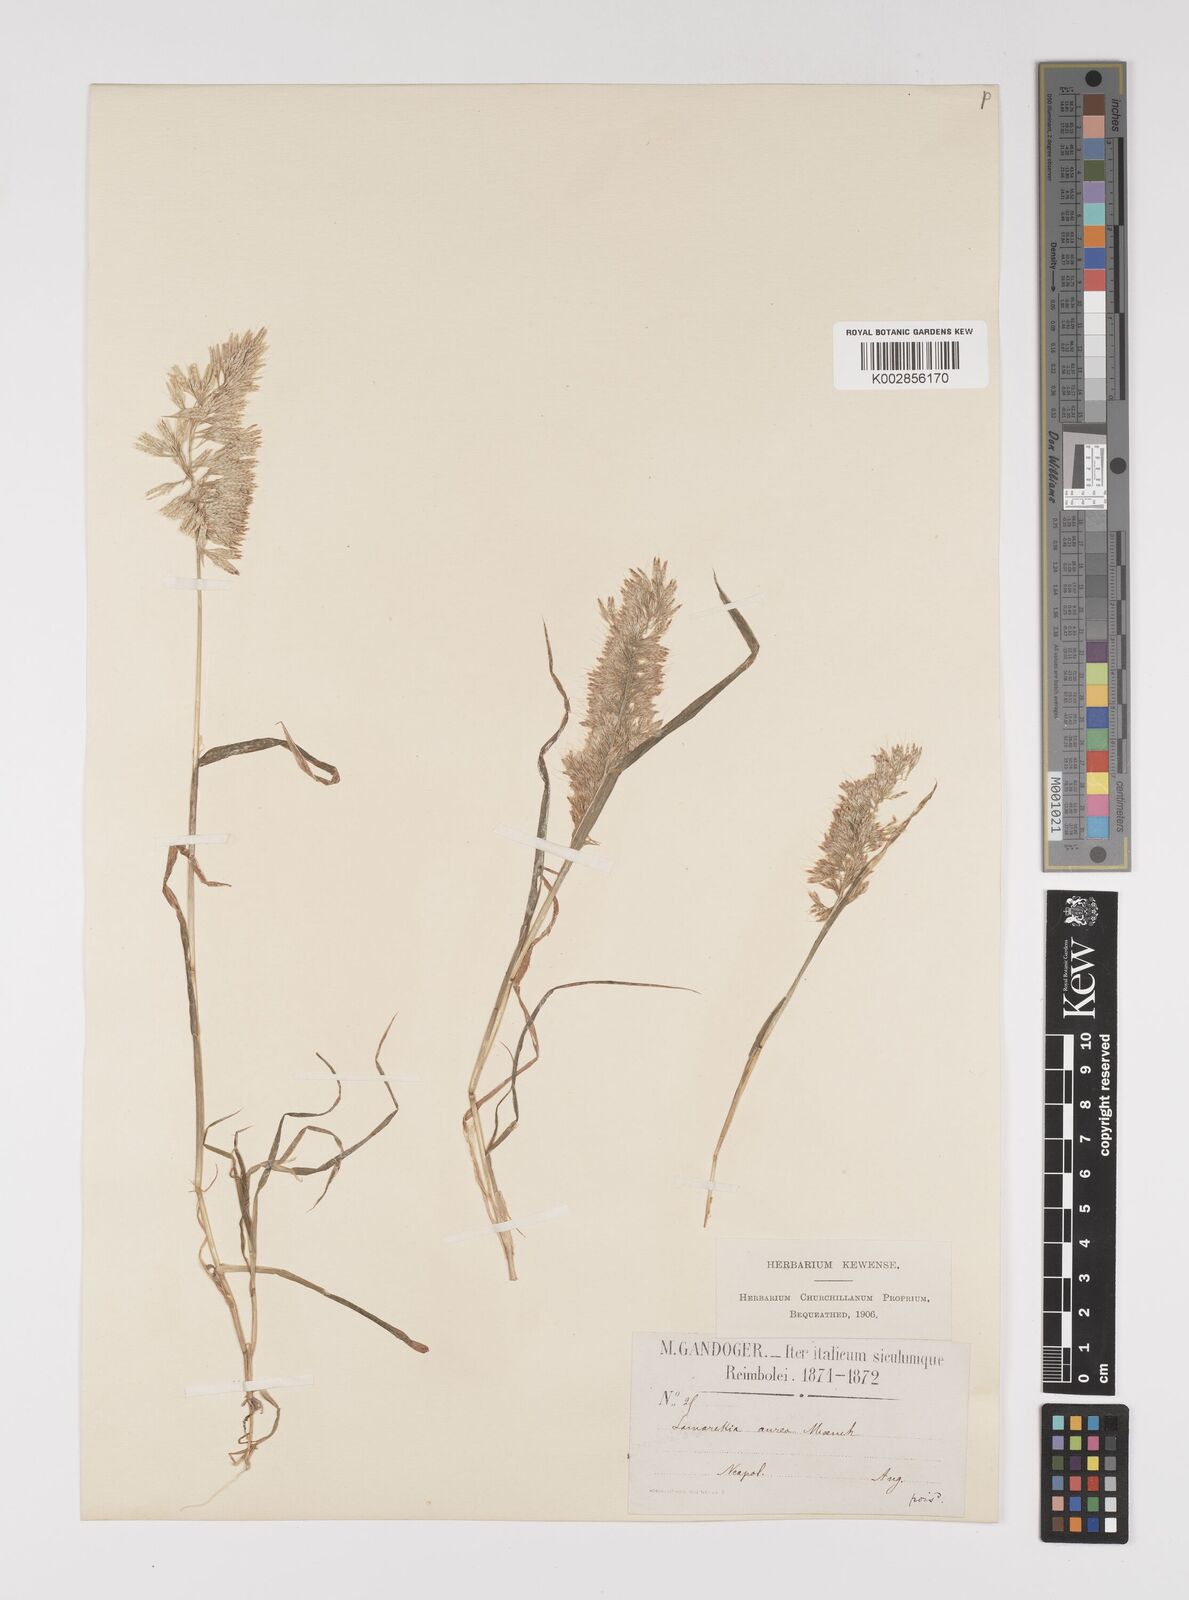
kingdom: Plantae
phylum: Tracheophyta
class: Liliopsida
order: Poales
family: Poaceae
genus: Lamarckia
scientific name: Lamarckia aurea
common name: Golden dog's-tail
